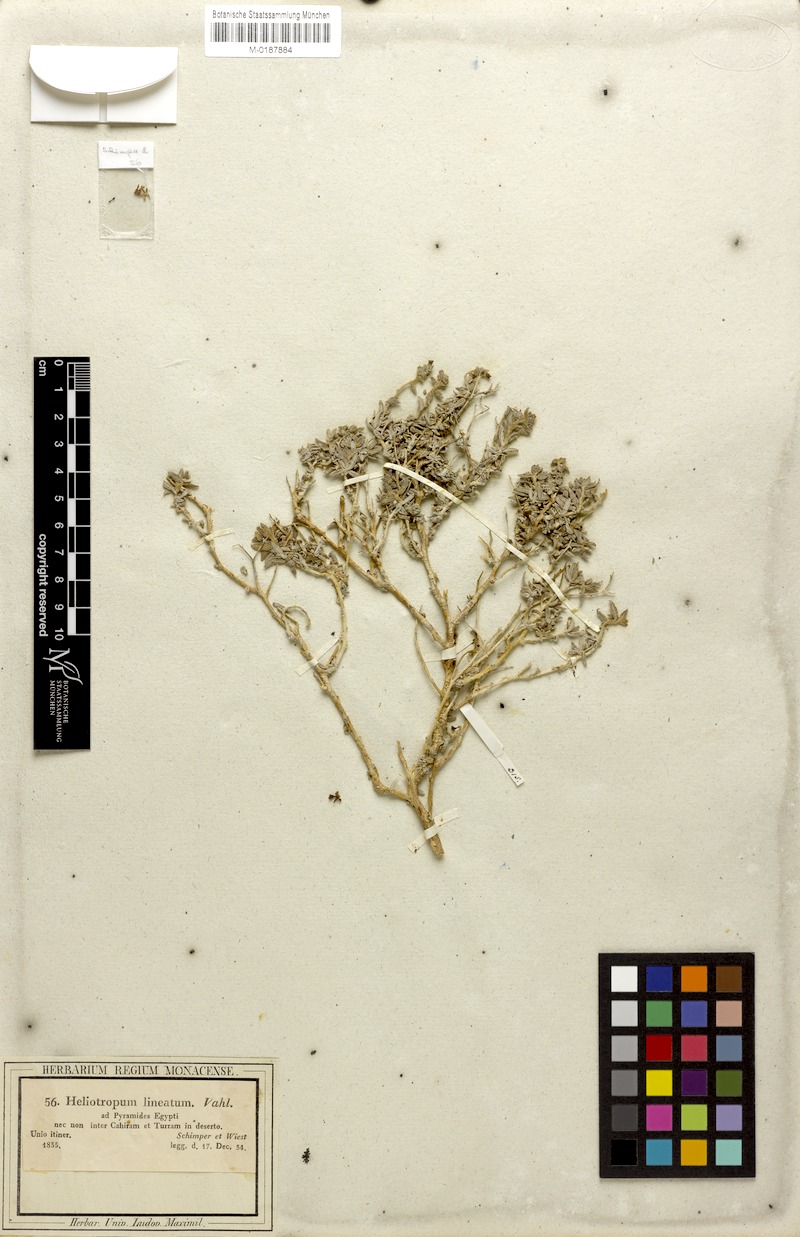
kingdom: Plantae
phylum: Tracheophyta
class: Magnoliopsida
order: Boraginales
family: Heliotropiaceae
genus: Heliotropium
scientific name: Heliotropium digynum
